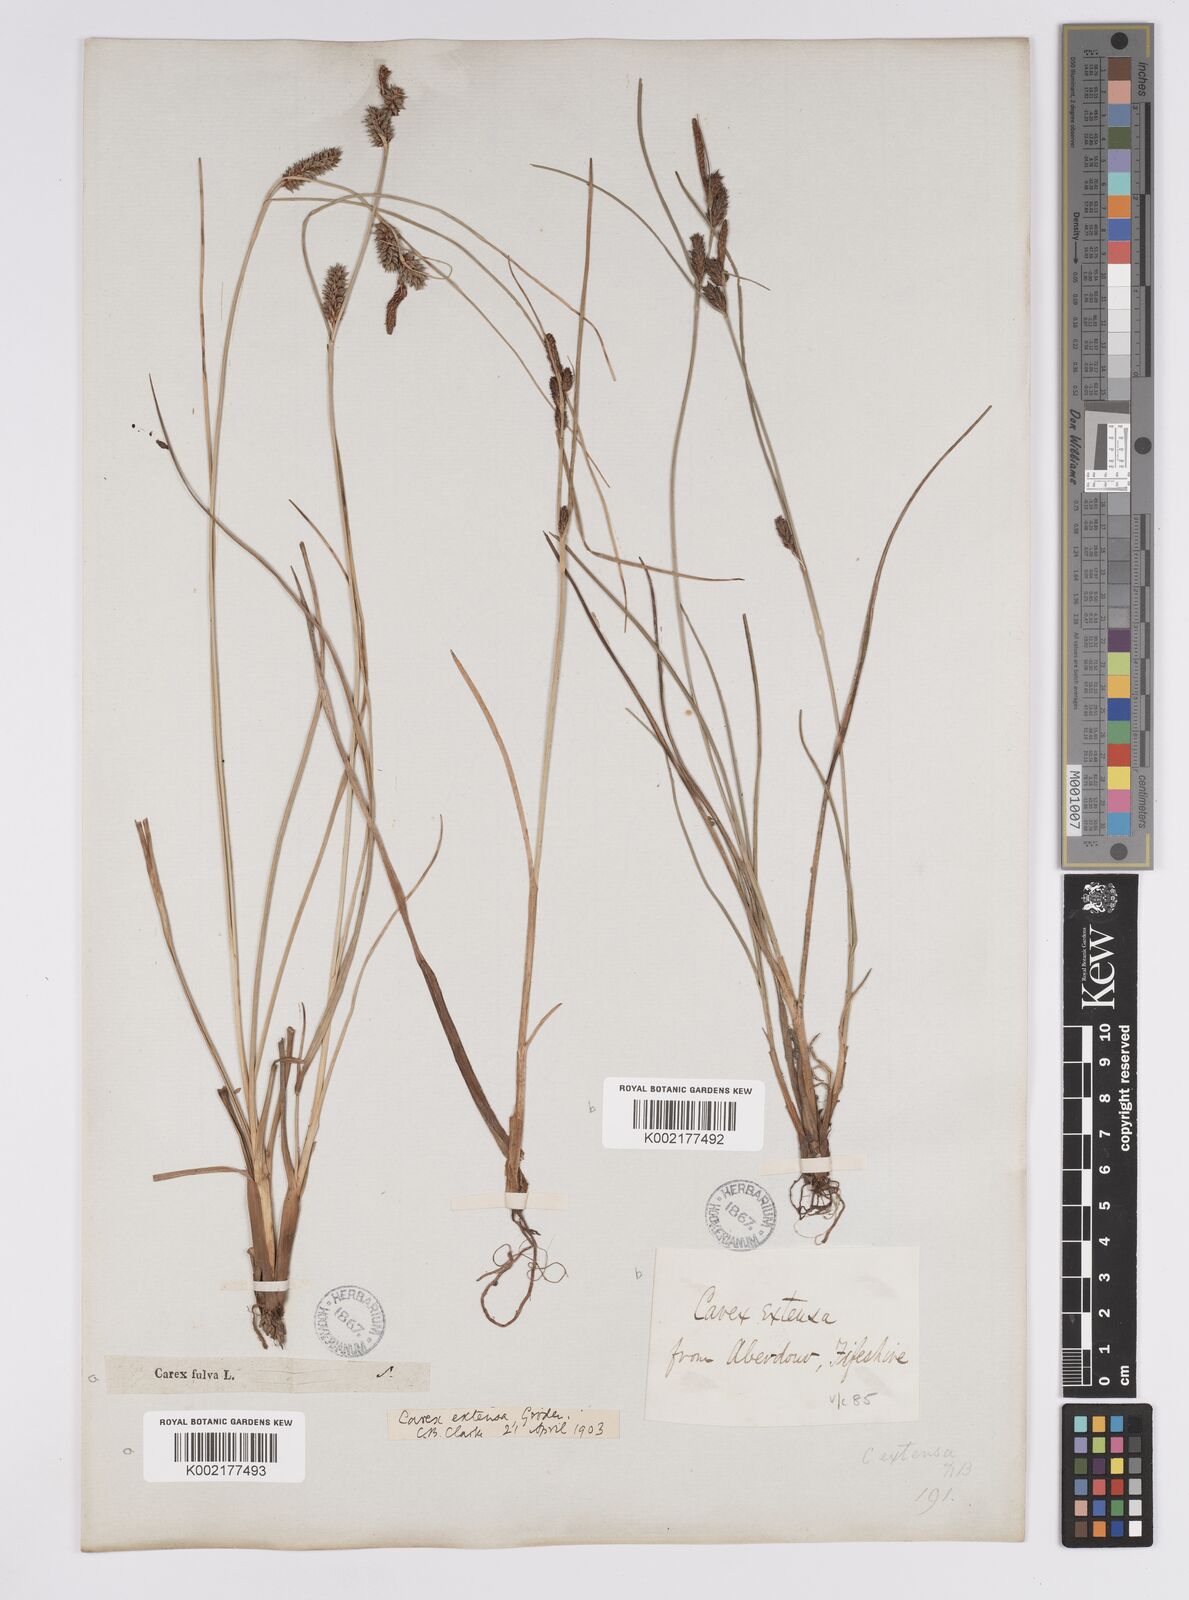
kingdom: Plantae
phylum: Tracheophyta
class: Liliopsida
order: Poales
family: Cyperaceae
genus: Carex
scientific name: Carex extensa
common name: Long-bracted sedge
